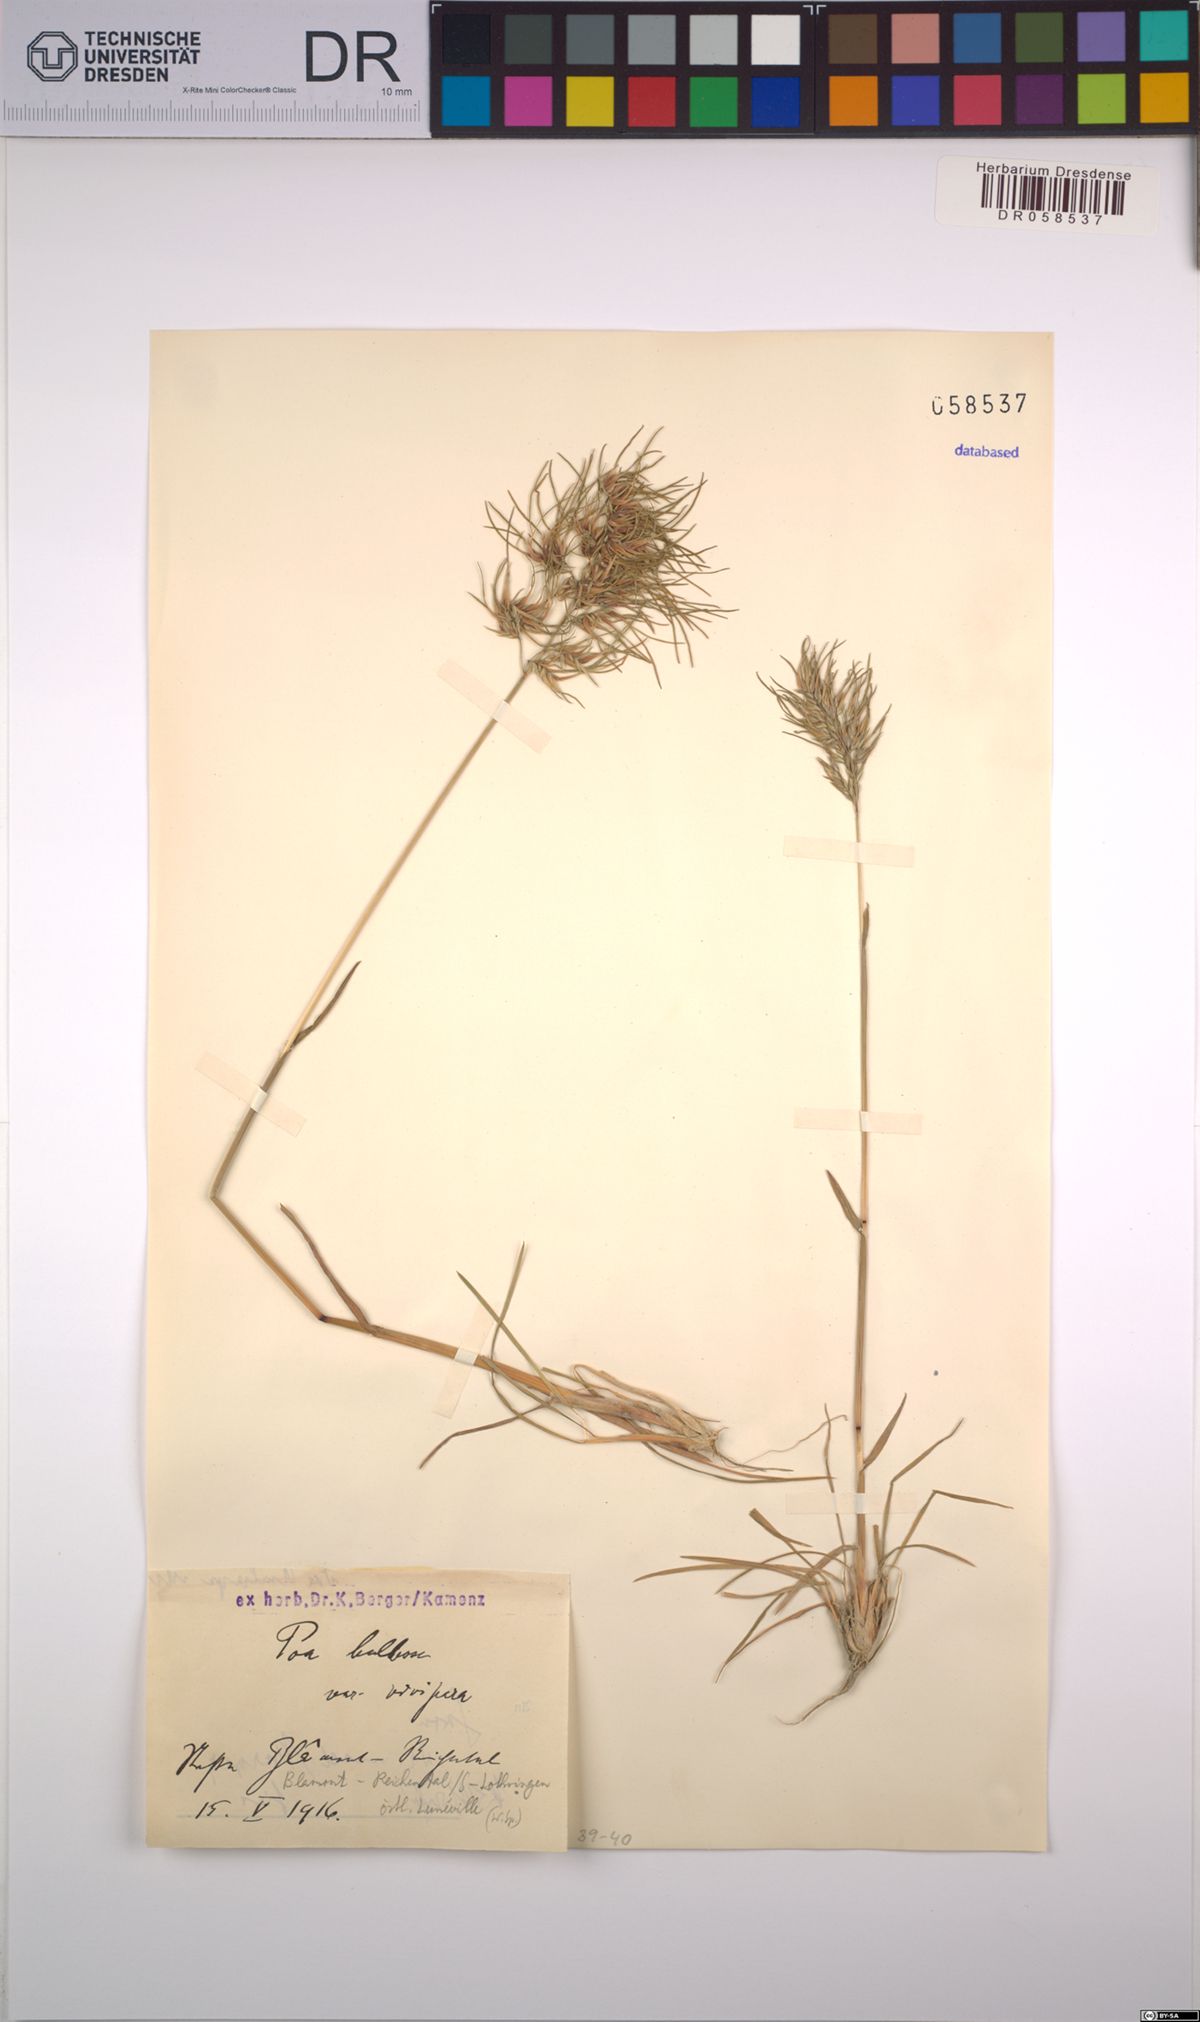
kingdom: Plantae
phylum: Tracheophyta
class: Liliopsida
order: Poales
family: Poaceae
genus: Poa
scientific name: Poa bulbosa
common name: Bulbous bluegrass
